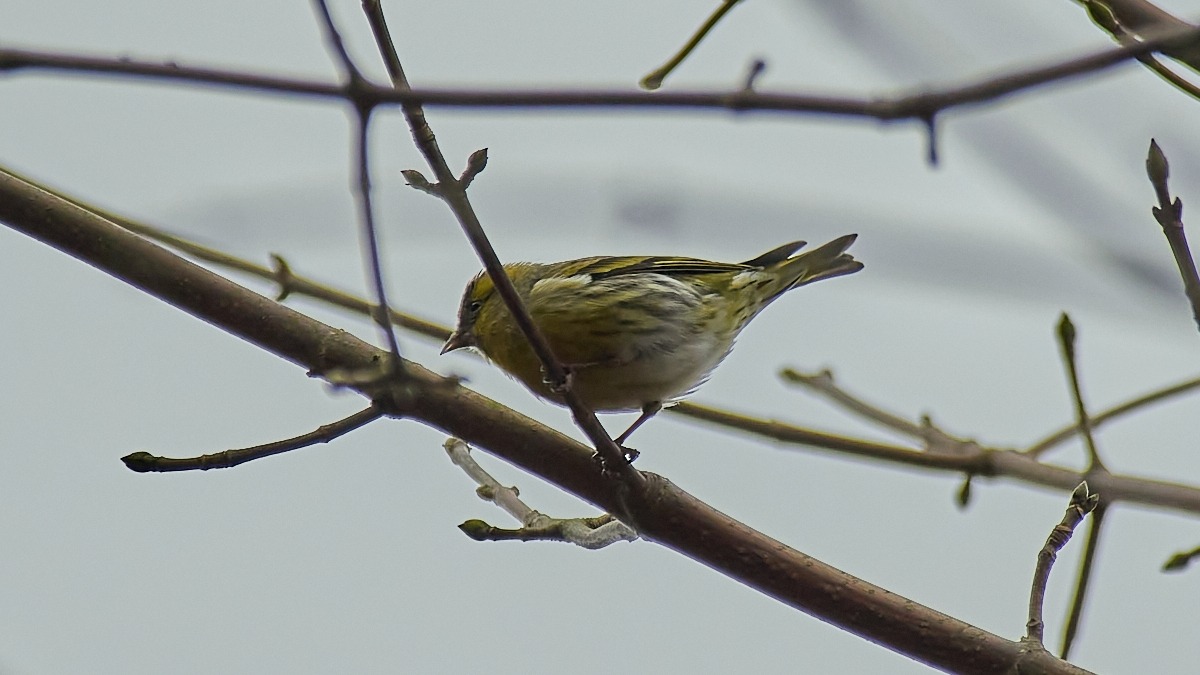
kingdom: Animalia
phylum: Chordata
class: Aves
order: Passeriformes
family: Fringillidae
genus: Spinus
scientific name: Spinus spinus
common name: Grønsisken
